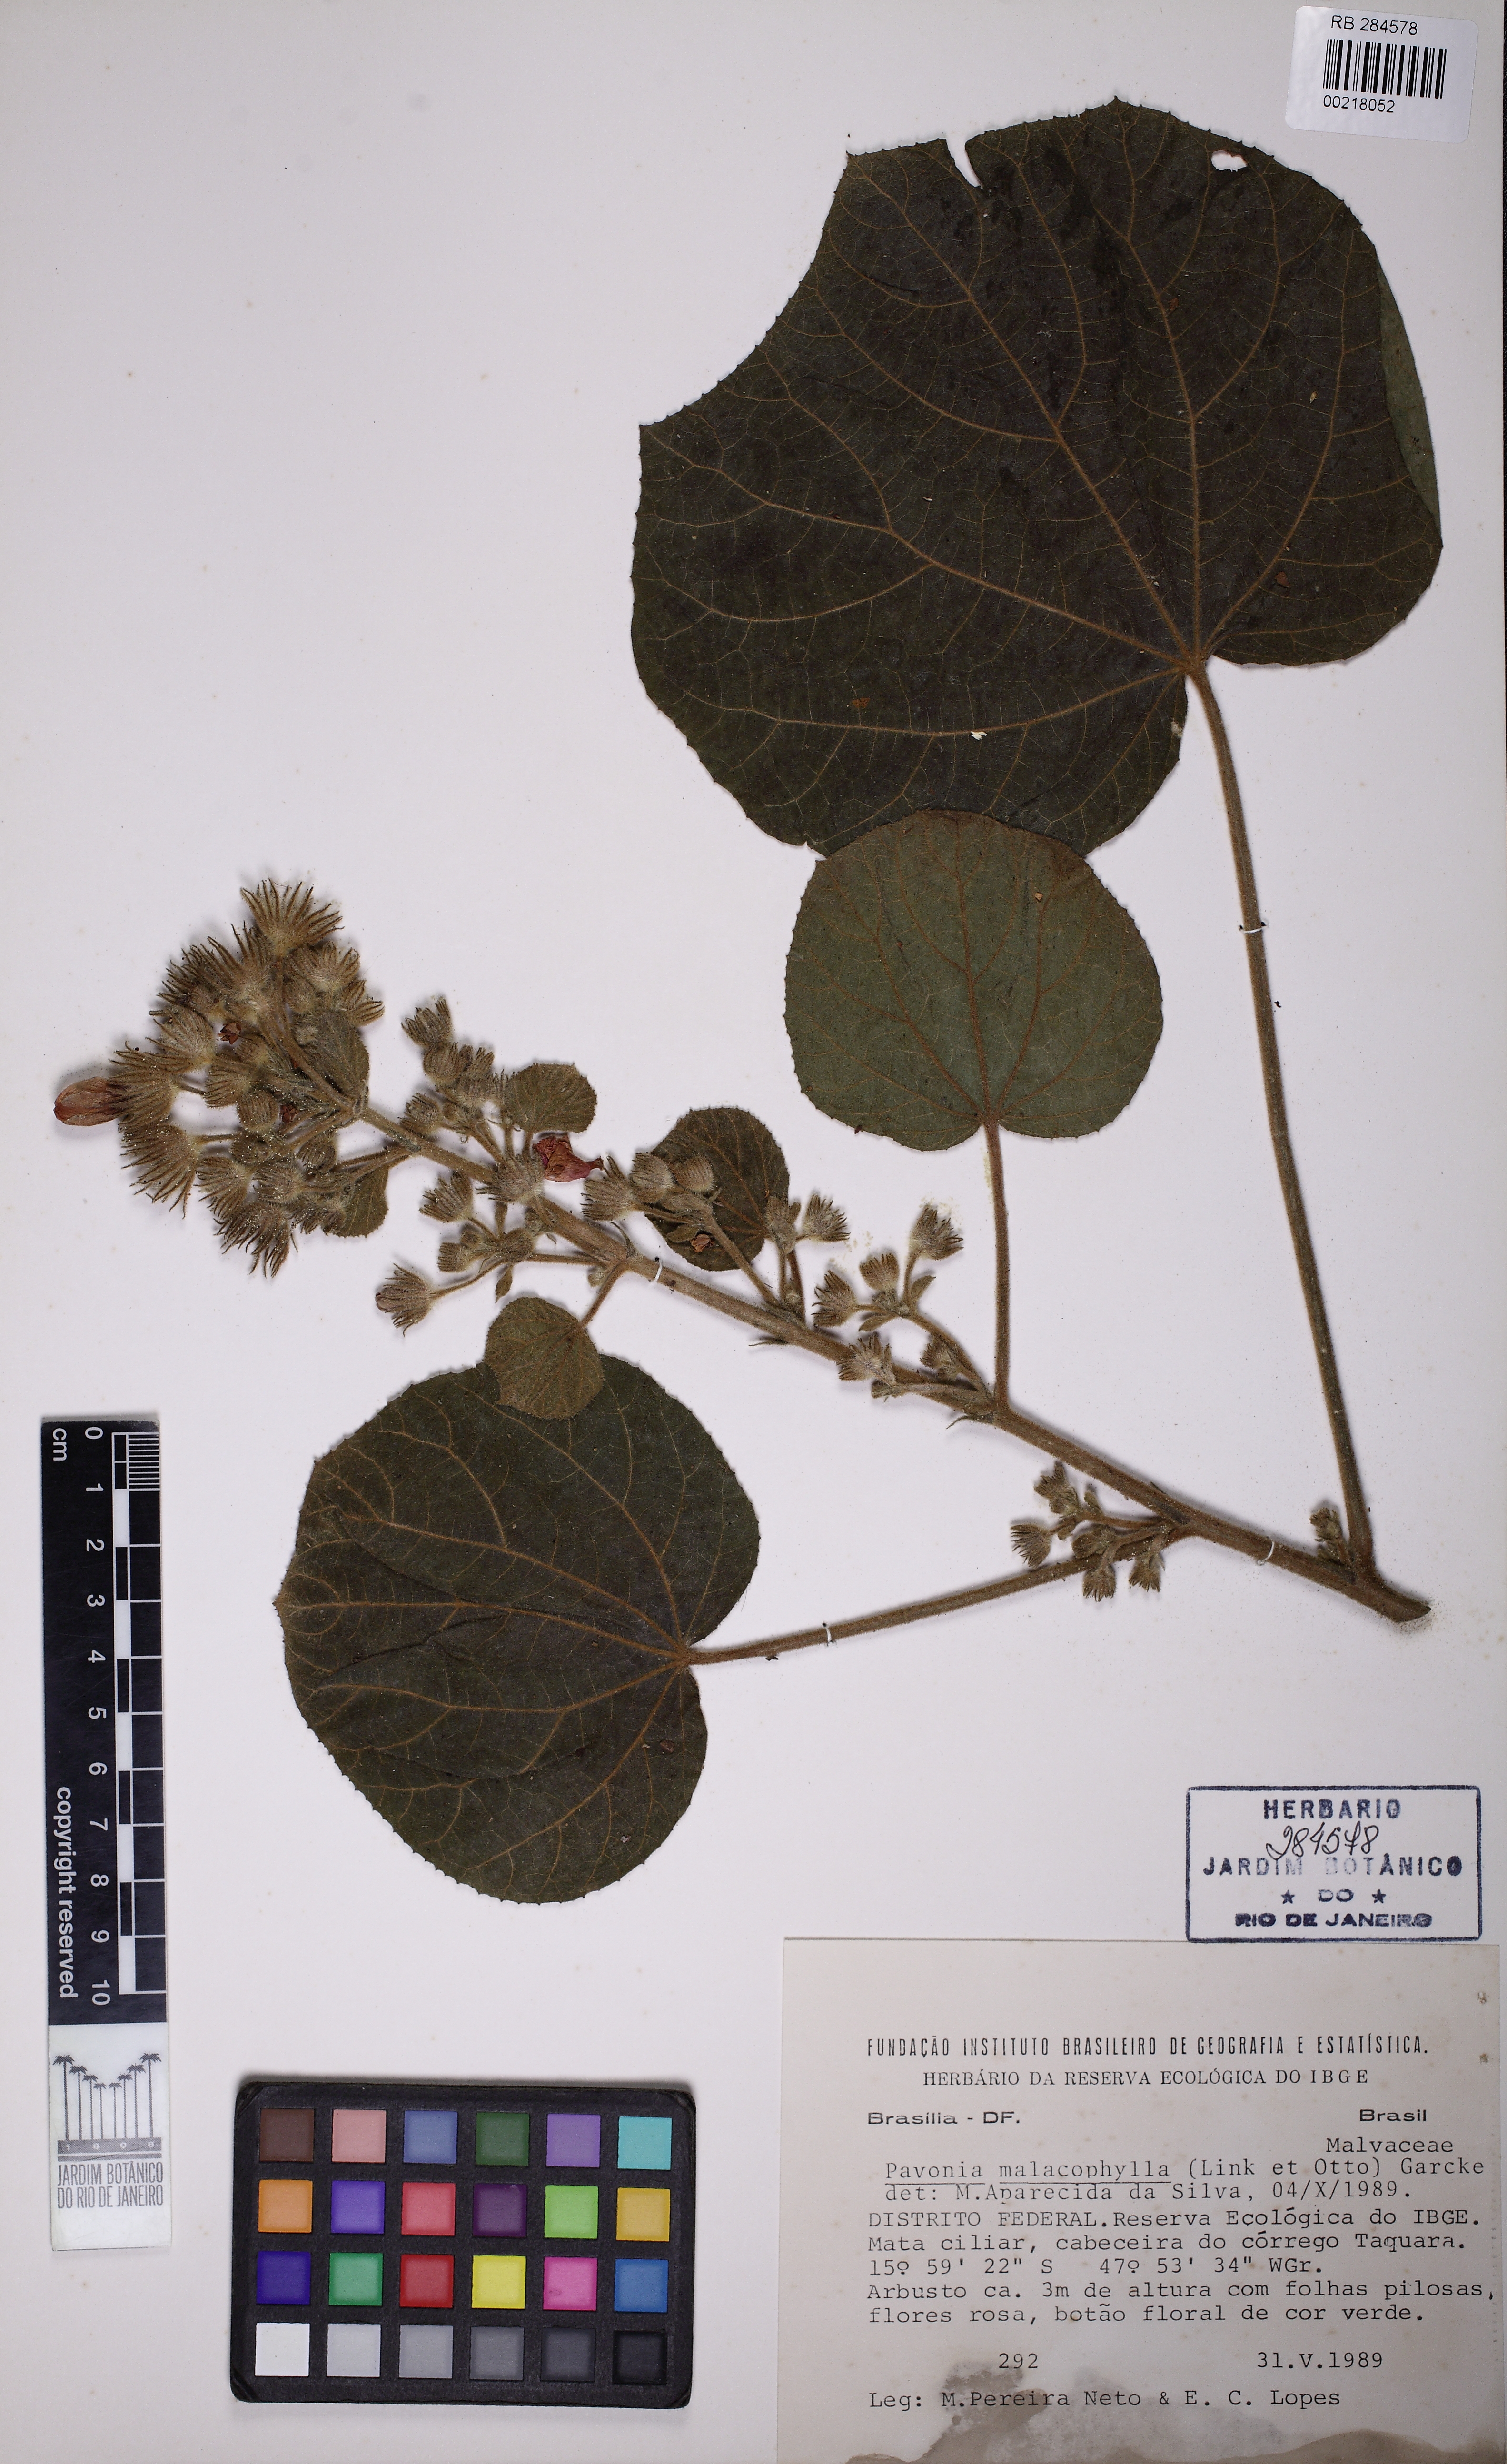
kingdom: Plantae
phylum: Tracheophyta
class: Magnoliopsida
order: Malvales
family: Malvaceae
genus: Pavonia
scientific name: Pavonia malacophylla
